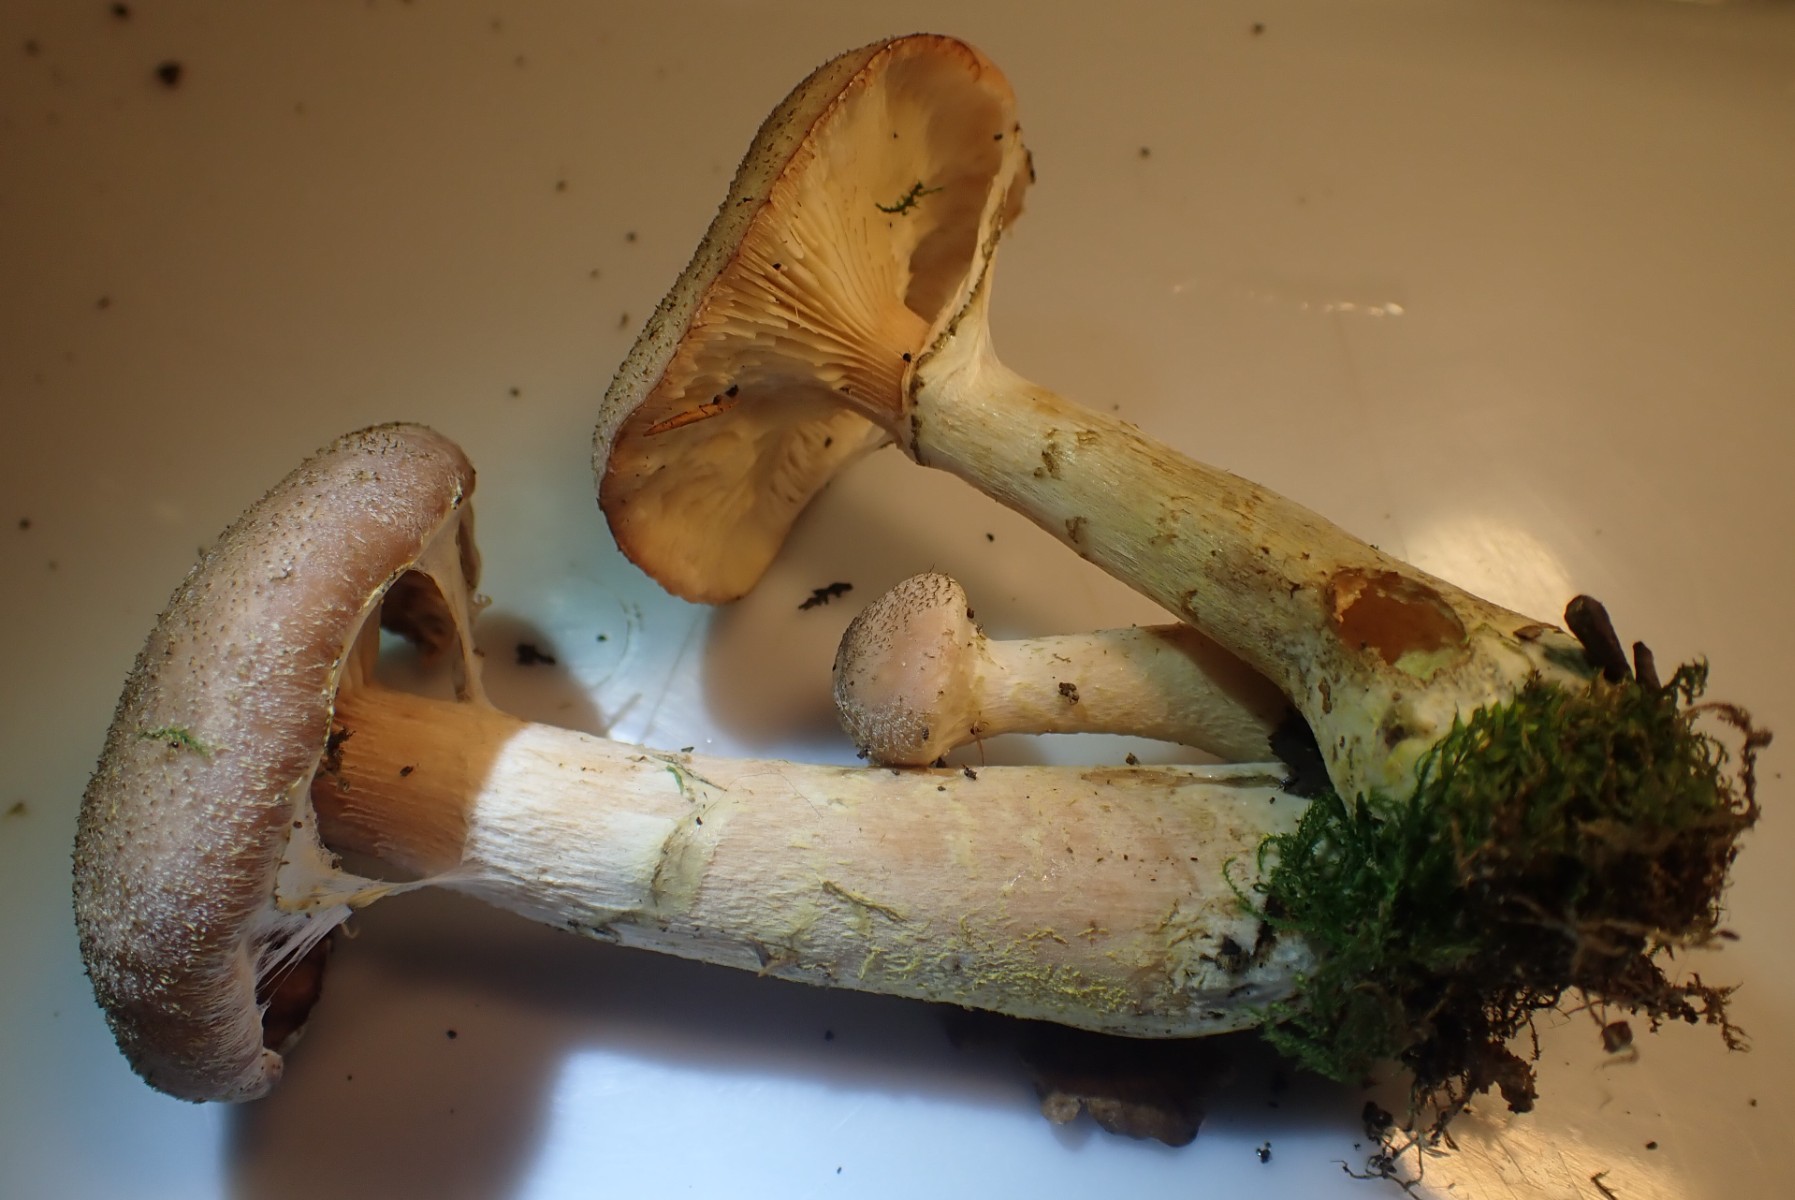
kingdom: Fungi
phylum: Basidiomycota
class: Agaricomycetes
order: Agaricales
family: Physalacriaceae
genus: Armillaria
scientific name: Armillaria lutea
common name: køllestokket honningsvamp
